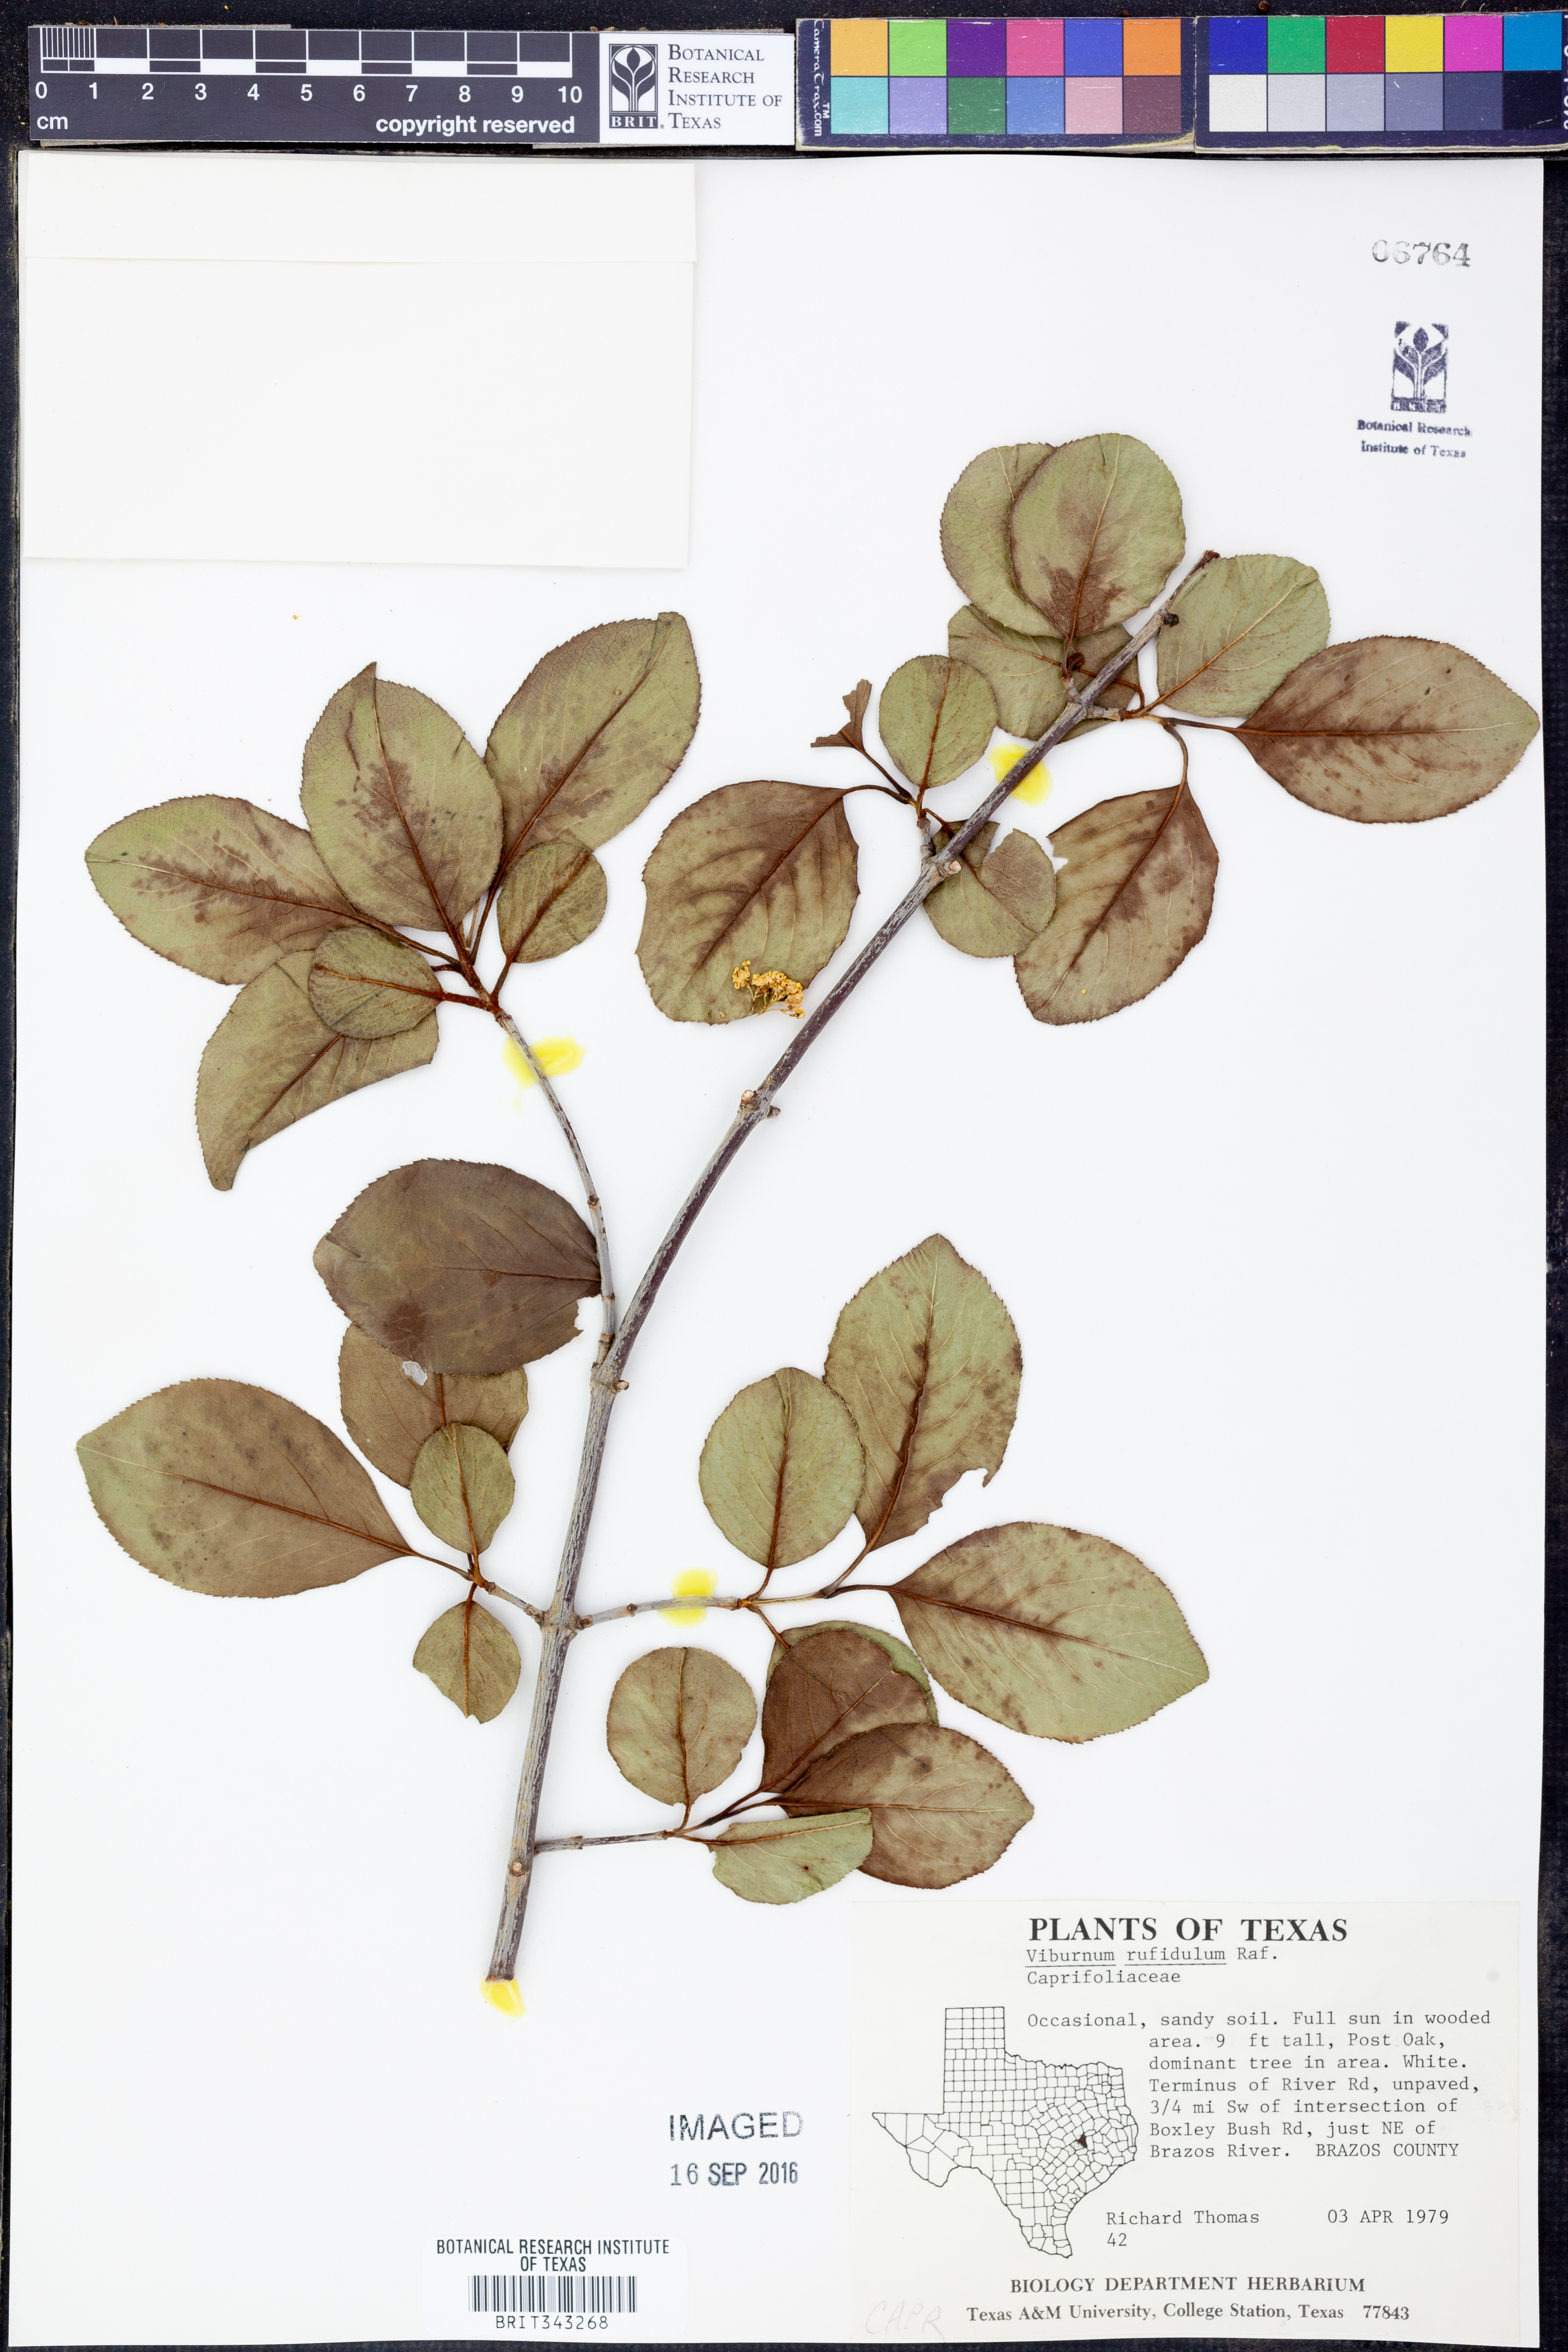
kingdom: Plantae
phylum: Tracheophyta
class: Magnoliopsida
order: Dipsacales
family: Viburnaceae
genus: Viburnum
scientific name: Viburnum rufidulum
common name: Blue haw
